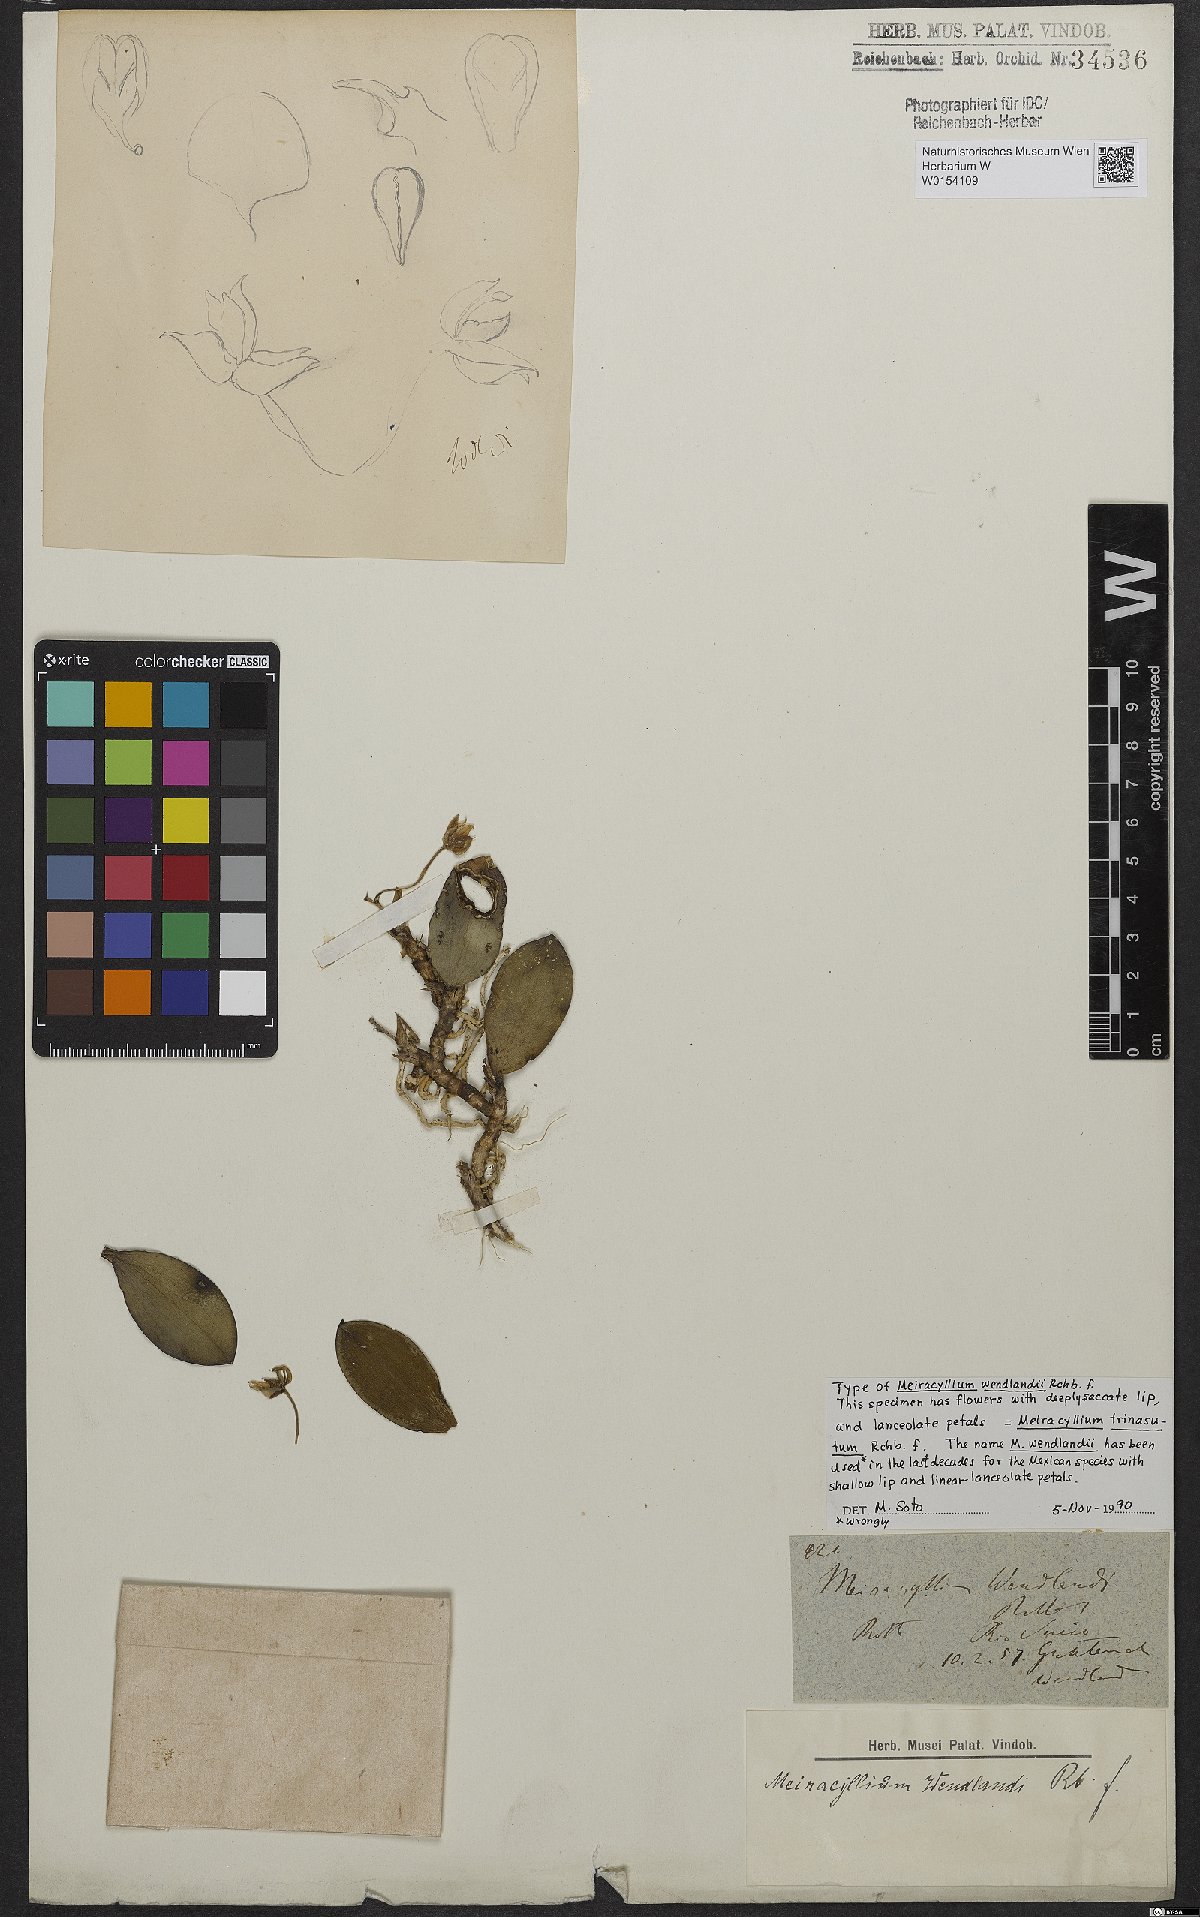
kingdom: Plantae
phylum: Tracheophyta
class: Liliopsida
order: Asparagales
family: Orchidaceae
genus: Meiracyllium
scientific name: Meiracyllium trinasutum
